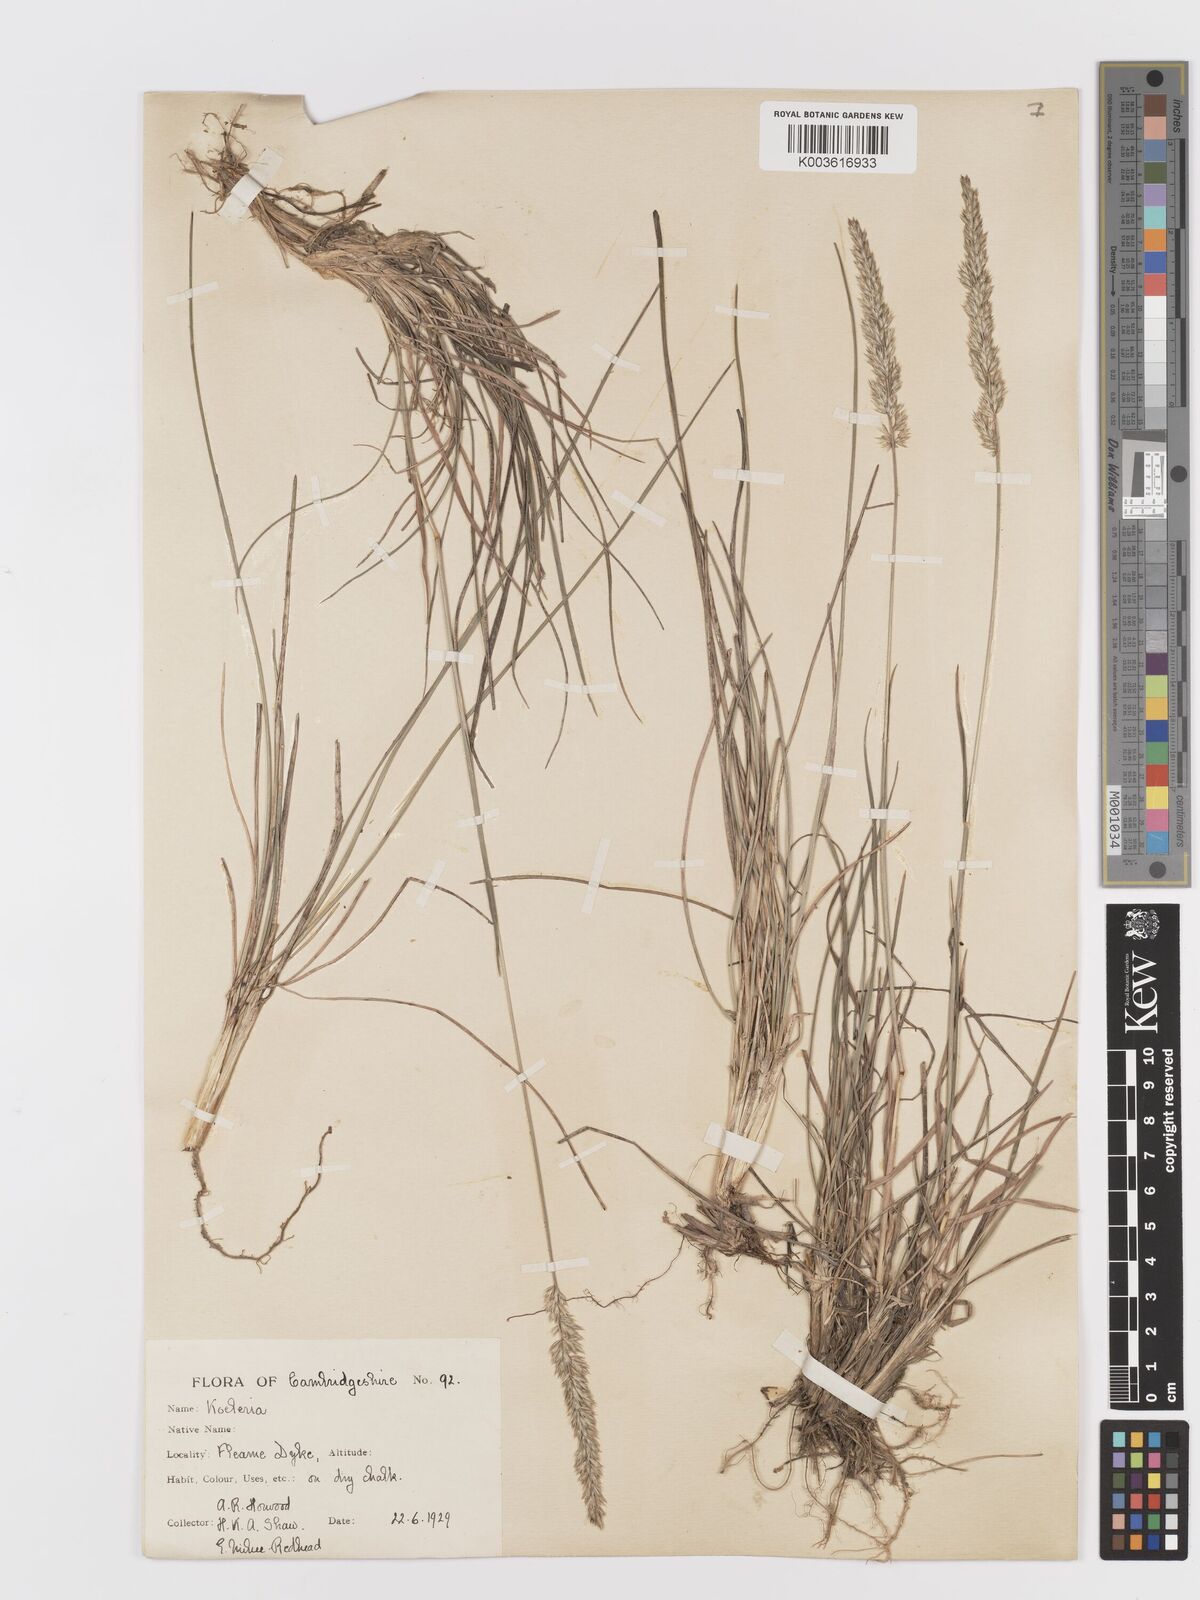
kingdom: Plantae
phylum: Tracheophyta
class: Liliopsida
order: Poales
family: Poaceae
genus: Koeleria
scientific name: Koeleria macrantha
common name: Crested hair-grass
